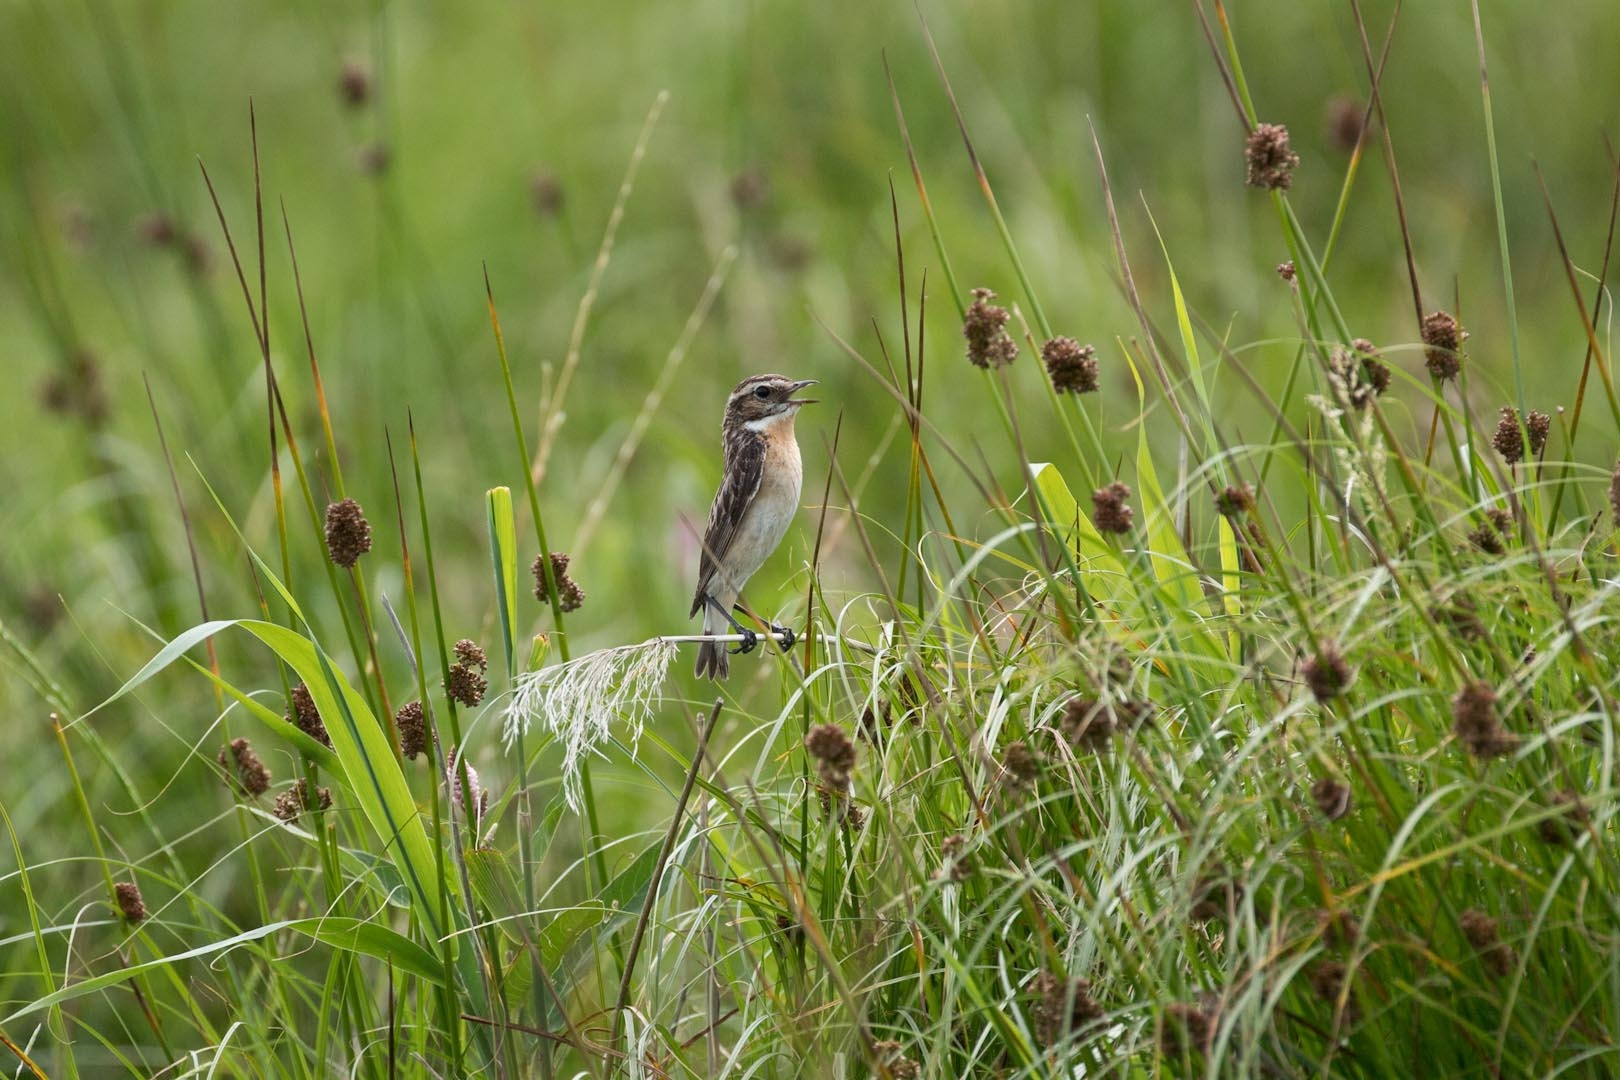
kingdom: Animalia
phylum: Chordata
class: Aves
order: Passeriformes
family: Muscicapidae
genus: Saxicola
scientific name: Saxicola rubetra
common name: Bynkefugl
